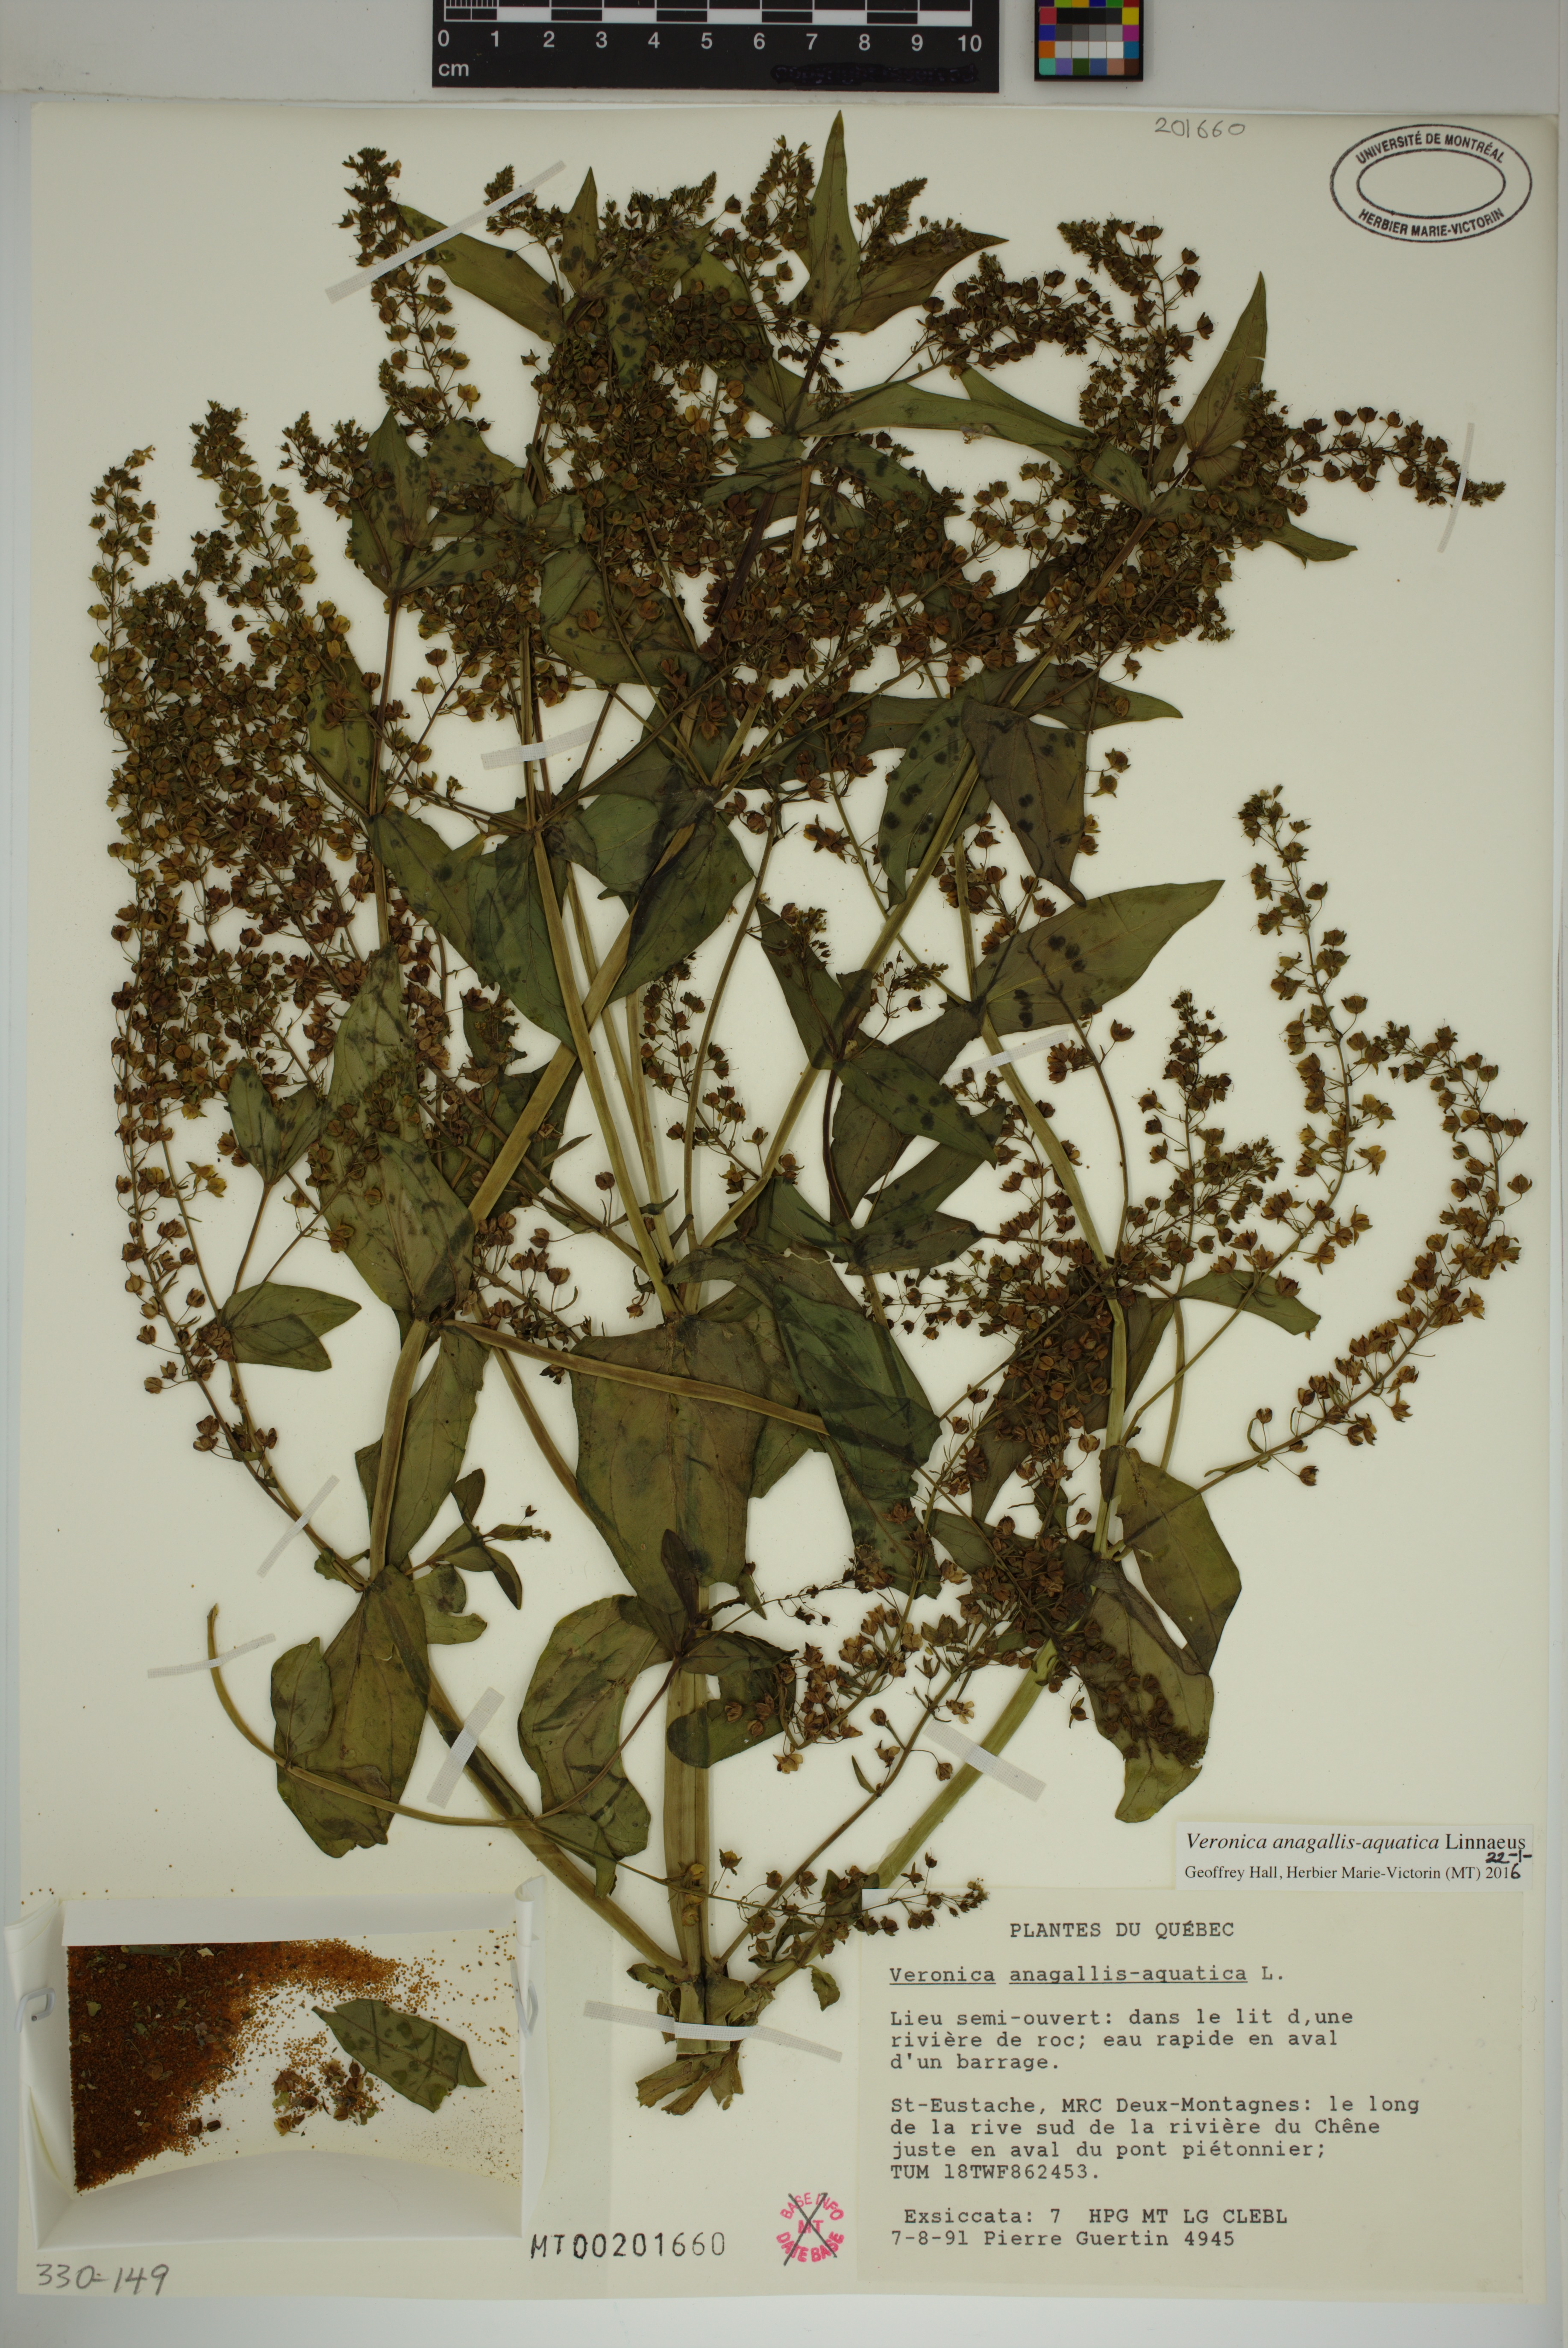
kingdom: Plantae
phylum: Tracheophyta
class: Magnoliopsida
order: Lamiales
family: Plantaginaceae
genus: Veronica
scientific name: Veronica anagallis-aquatica
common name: Water speedwell
